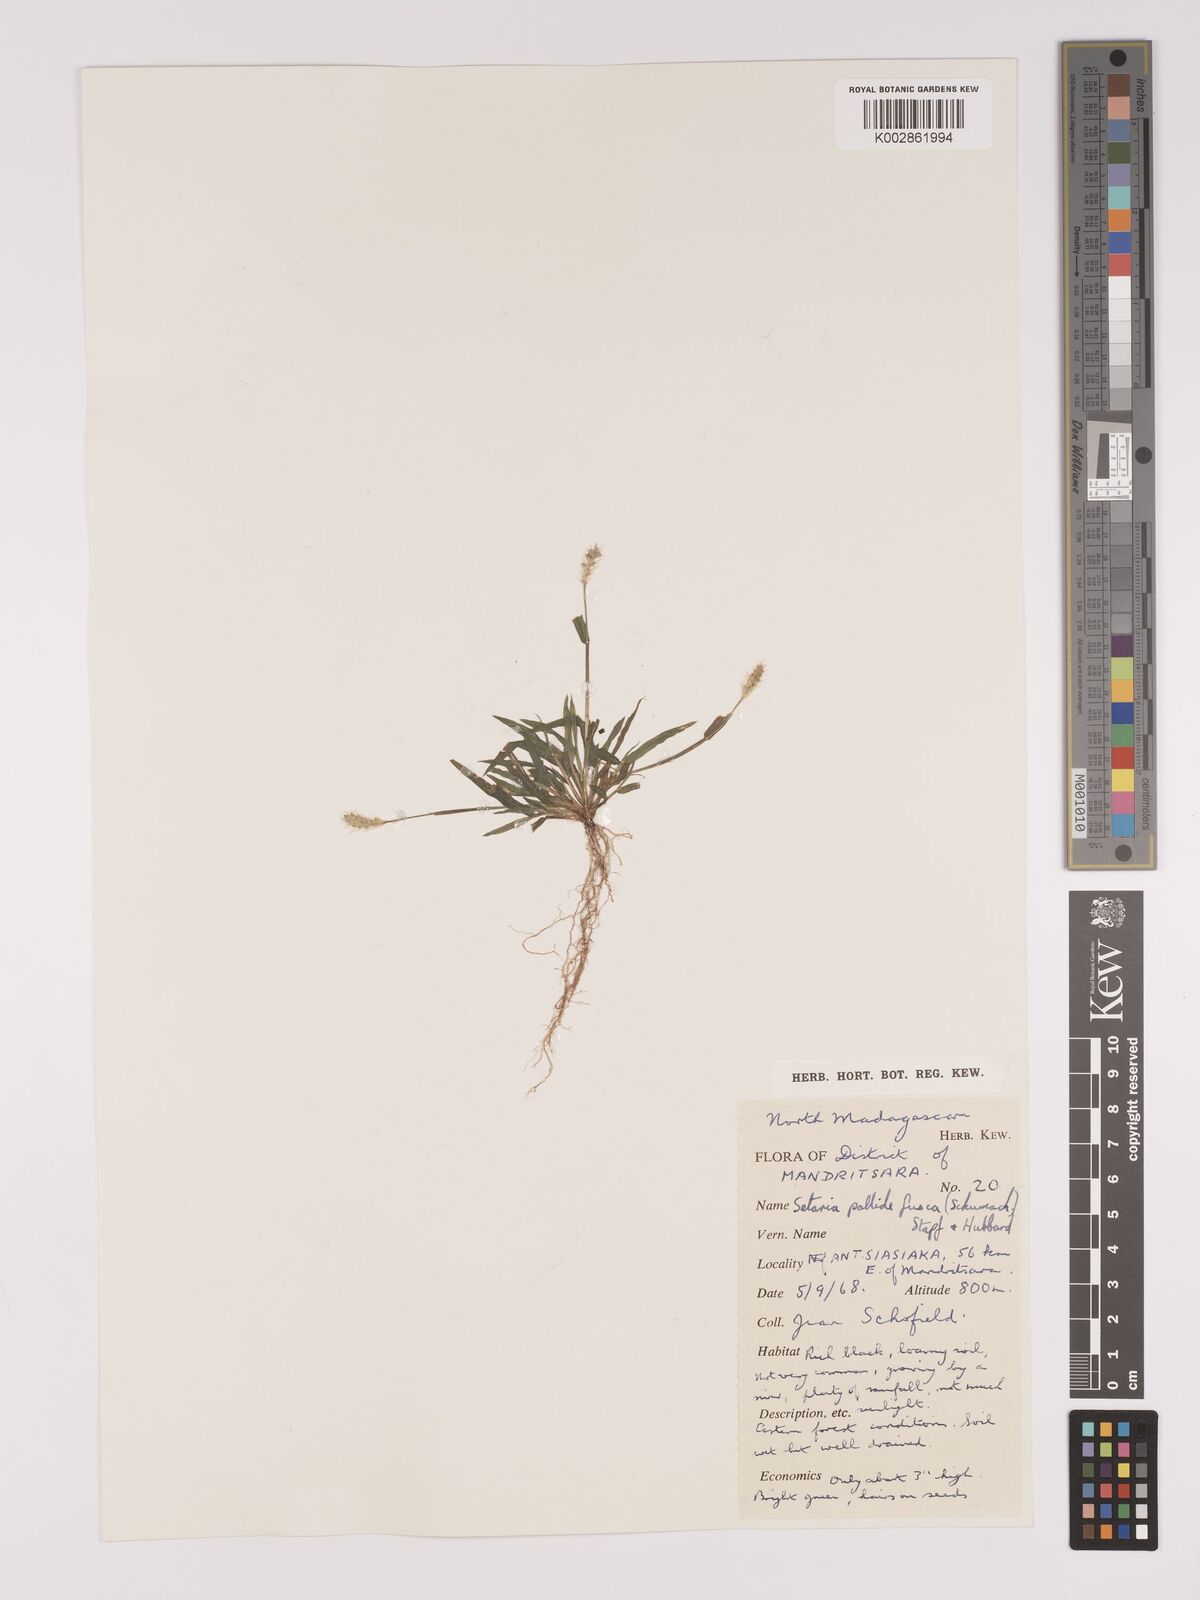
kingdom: Plantae
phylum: Tracheophyta
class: Liliopsida
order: Poales
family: Poaceae
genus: Setaria
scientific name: Setaria pumila
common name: Yellow bristle-grass
